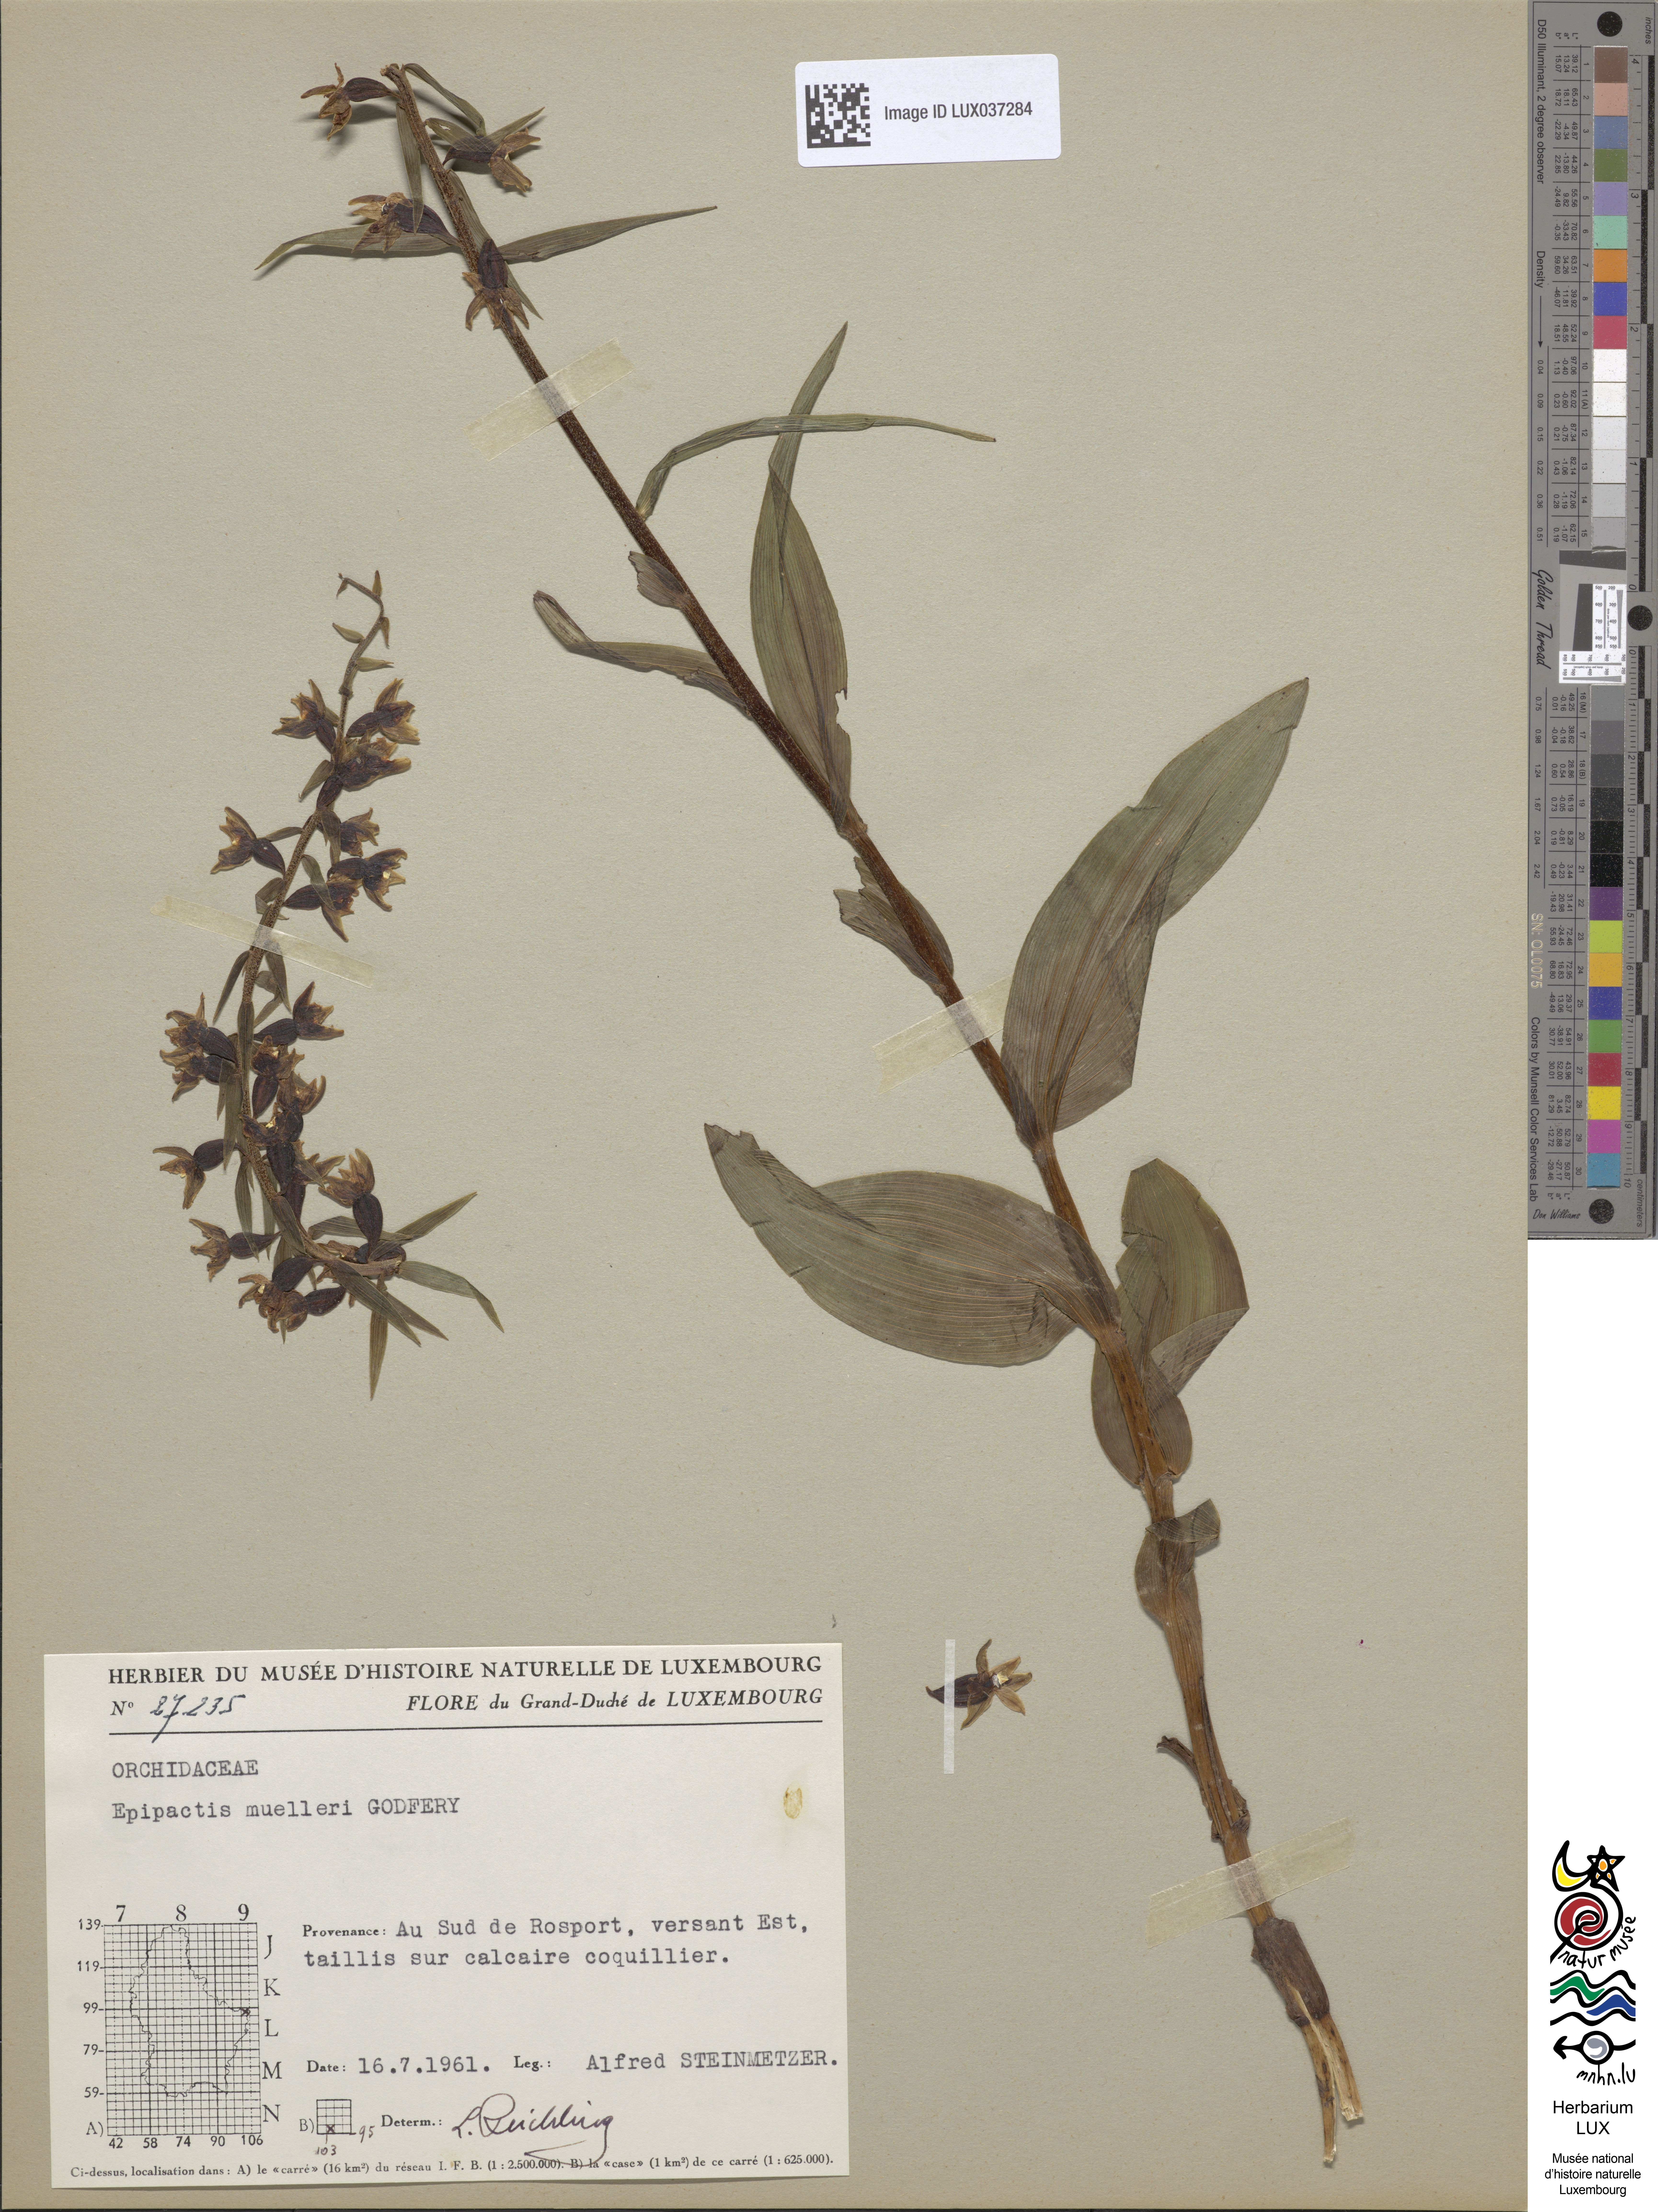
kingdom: Plantae
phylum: Tracheophyta
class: Liliopsida
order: Asparagales
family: Orchidaceae
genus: Epipactis
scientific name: Epipactis muelleri
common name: Mueller's epipactis
